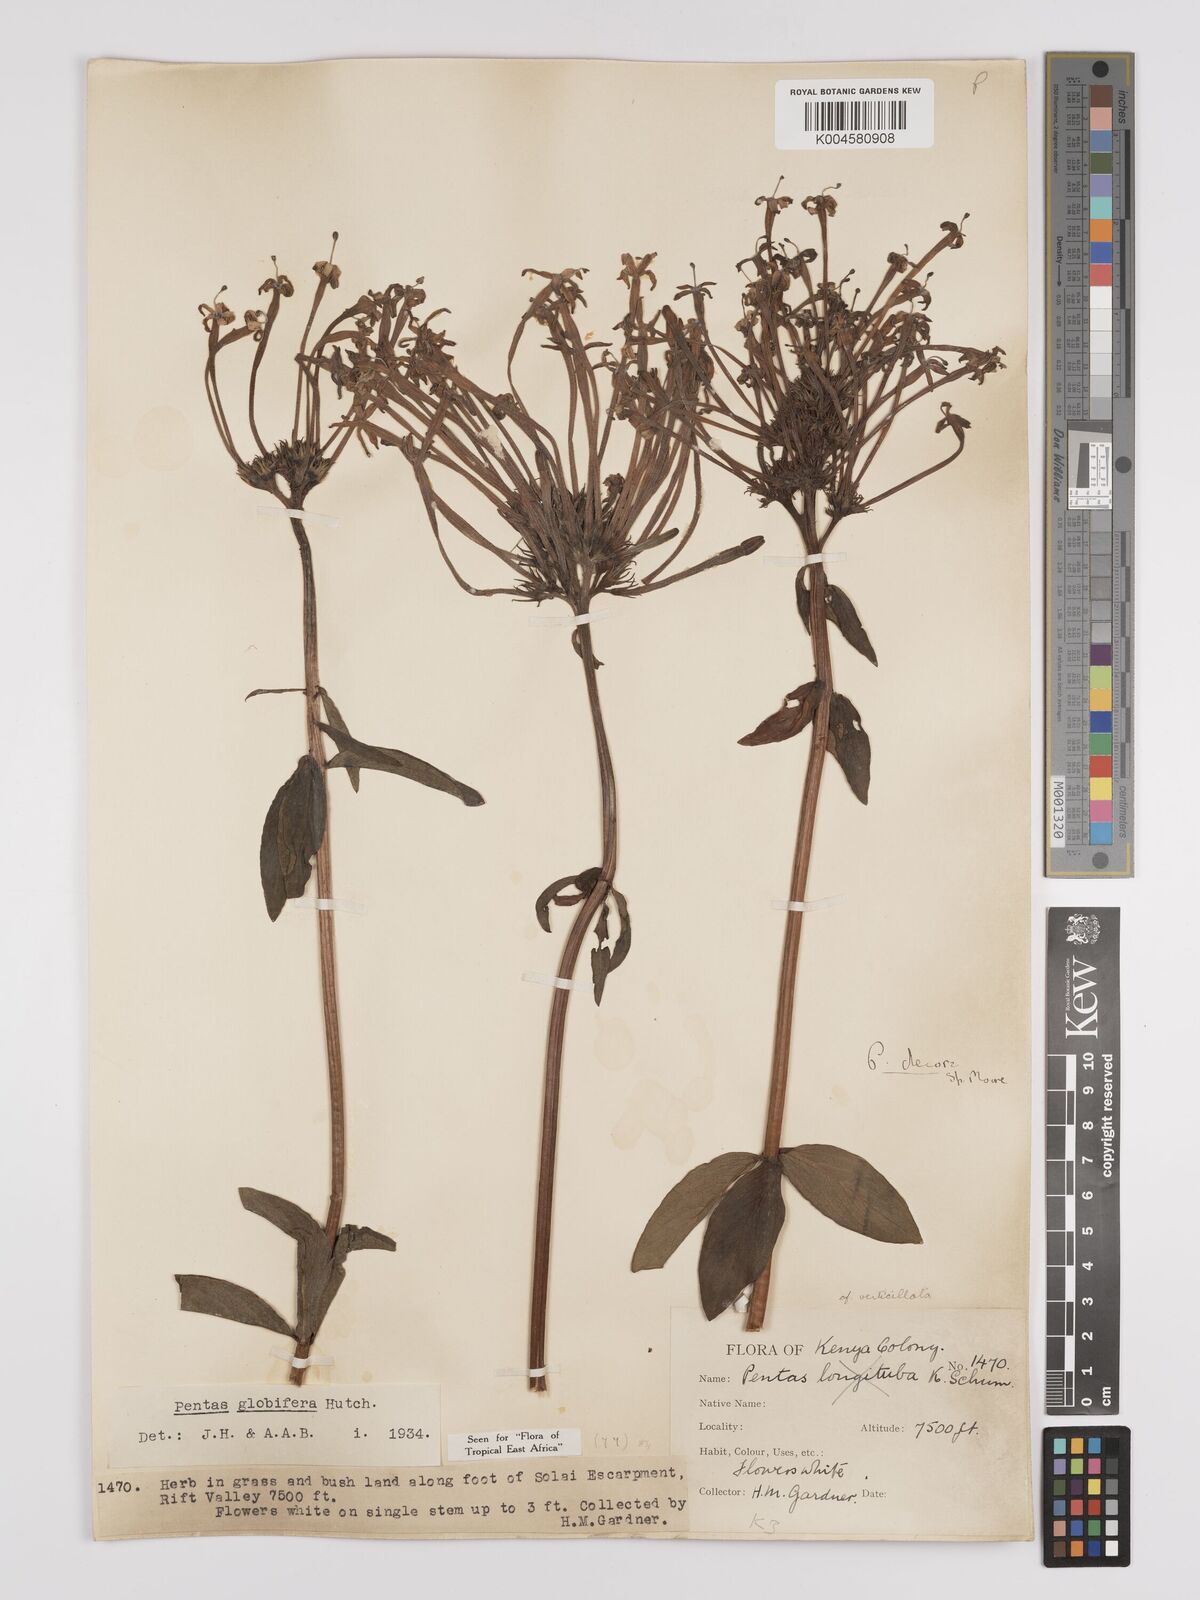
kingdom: Plantae
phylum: Tracheophyta
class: Magnoliopsida
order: Gentianales
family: Rubiaceae
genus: Dolichopentas
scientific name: Dolichopentas decora
